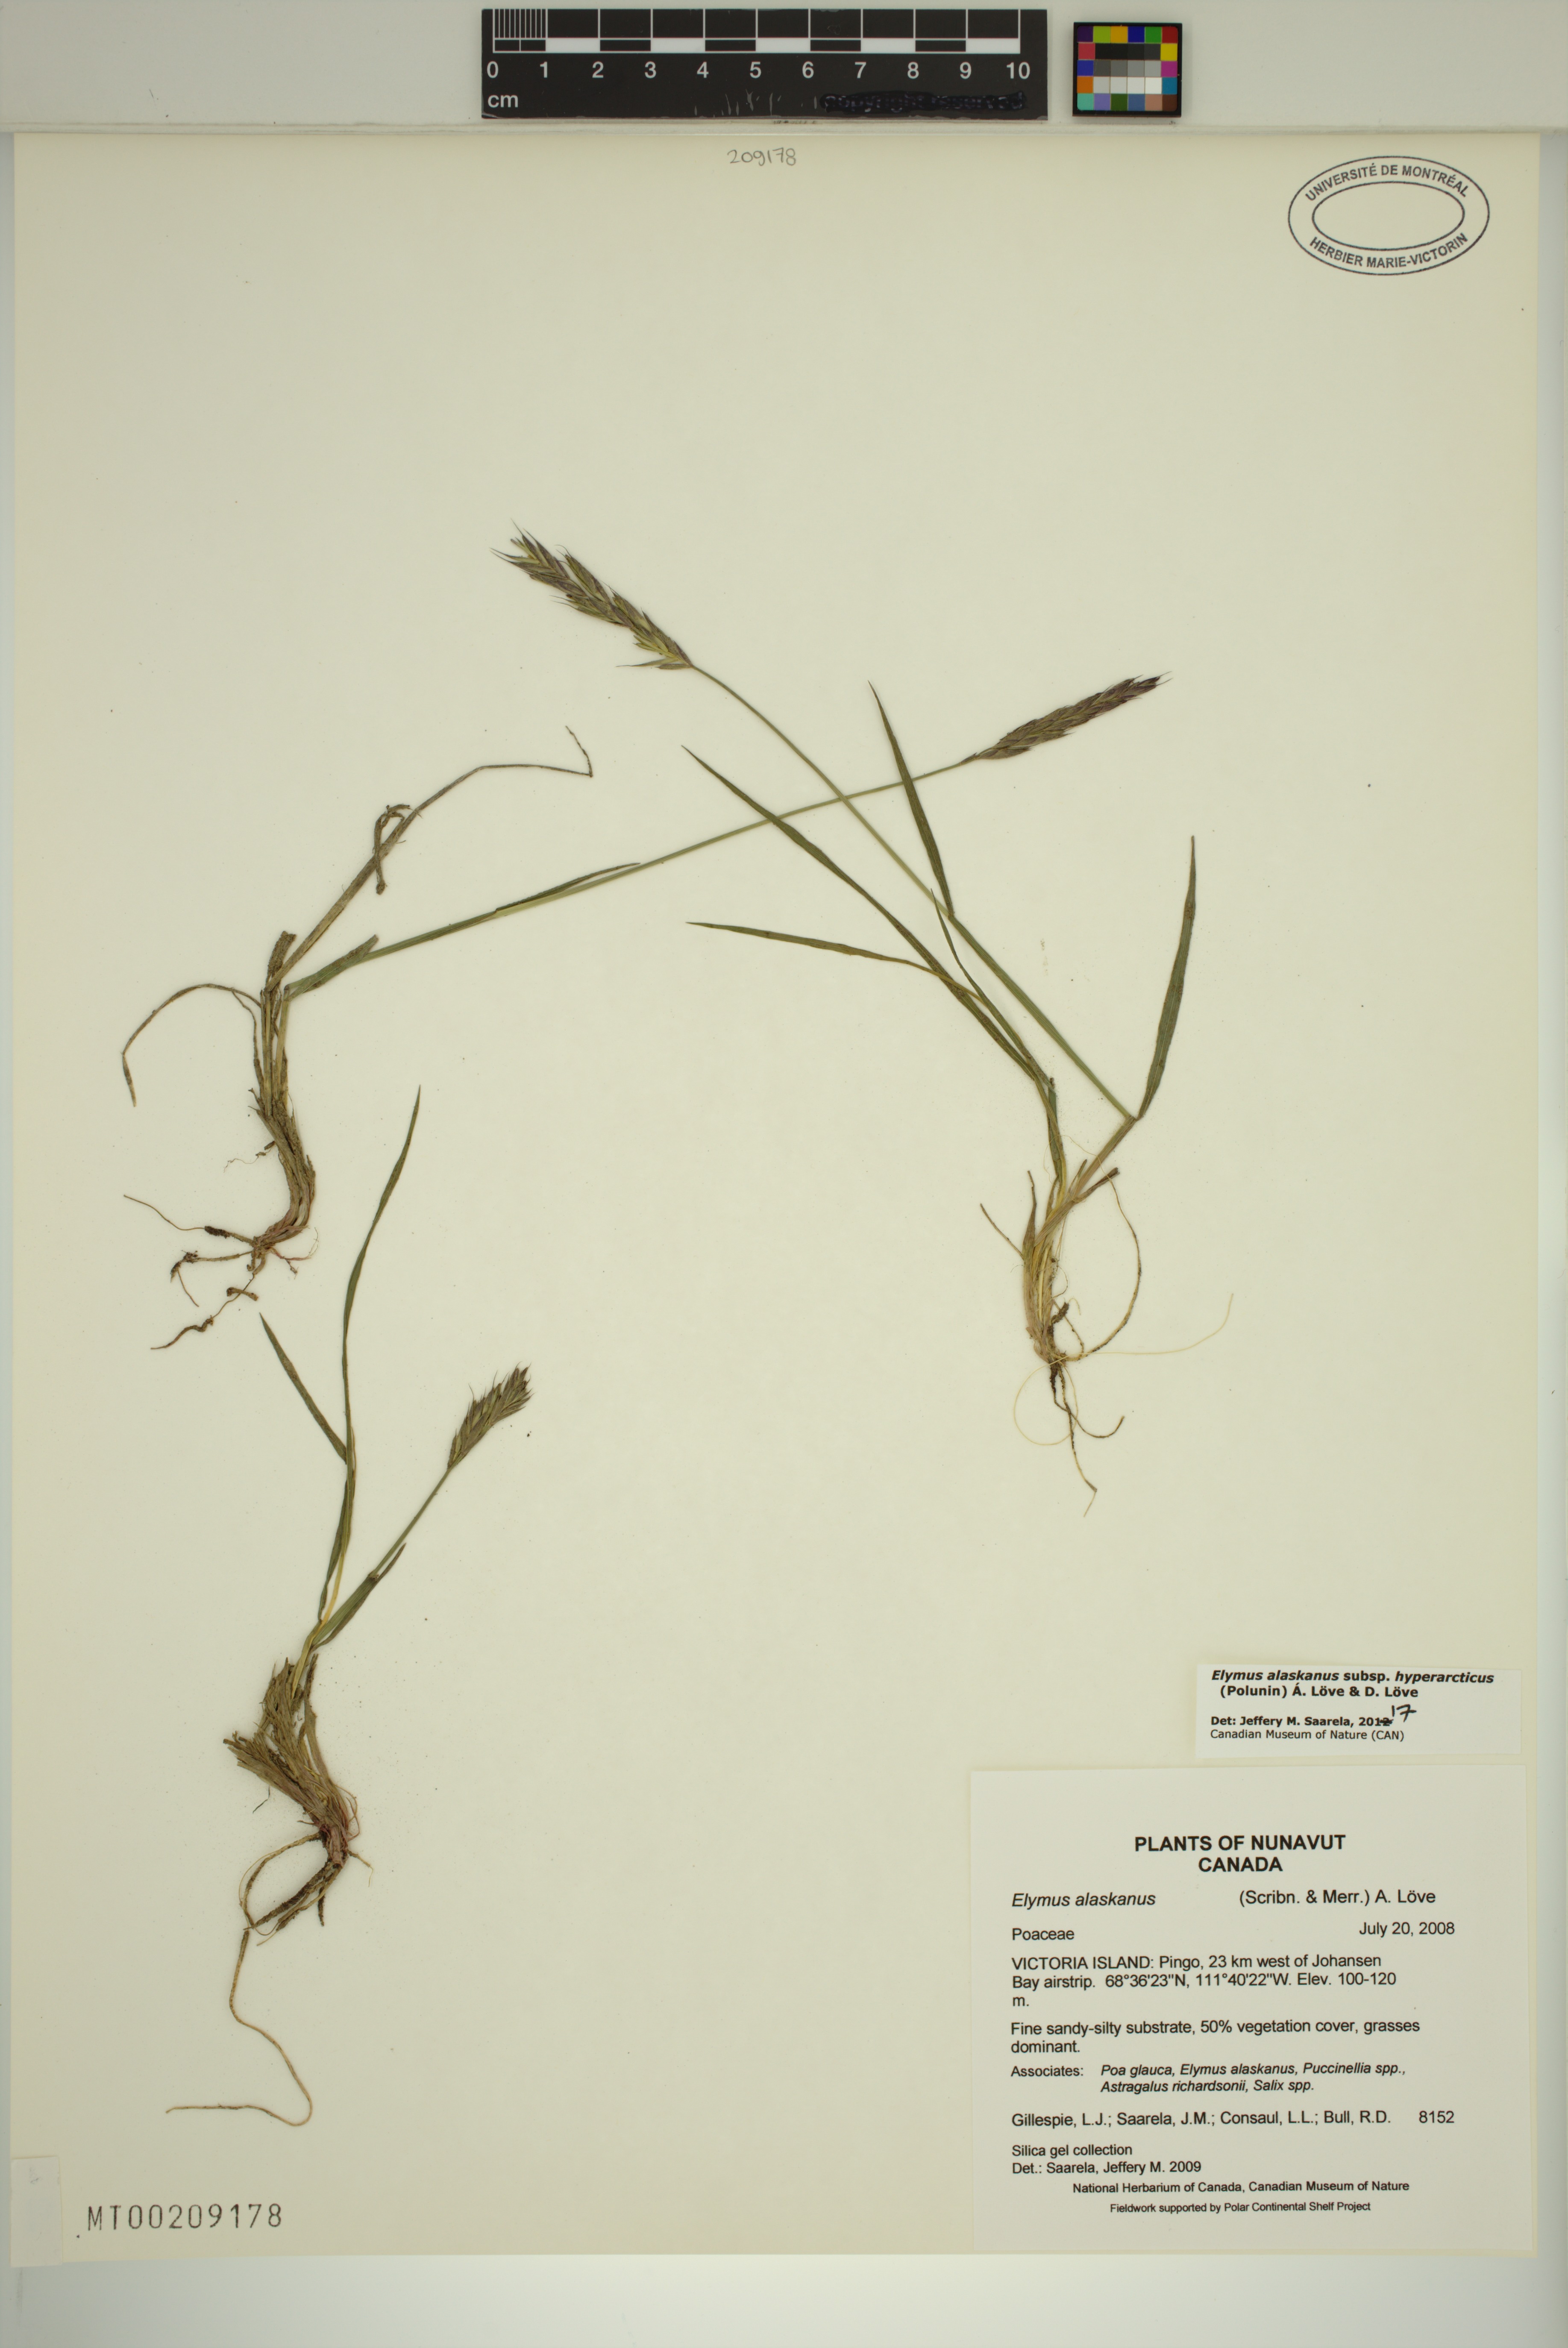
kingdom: Plantae
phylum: Tracheophyta
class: Liliopsida
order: Poales
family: Poaceae
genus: Elymus
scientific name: Elymus sajanensis
